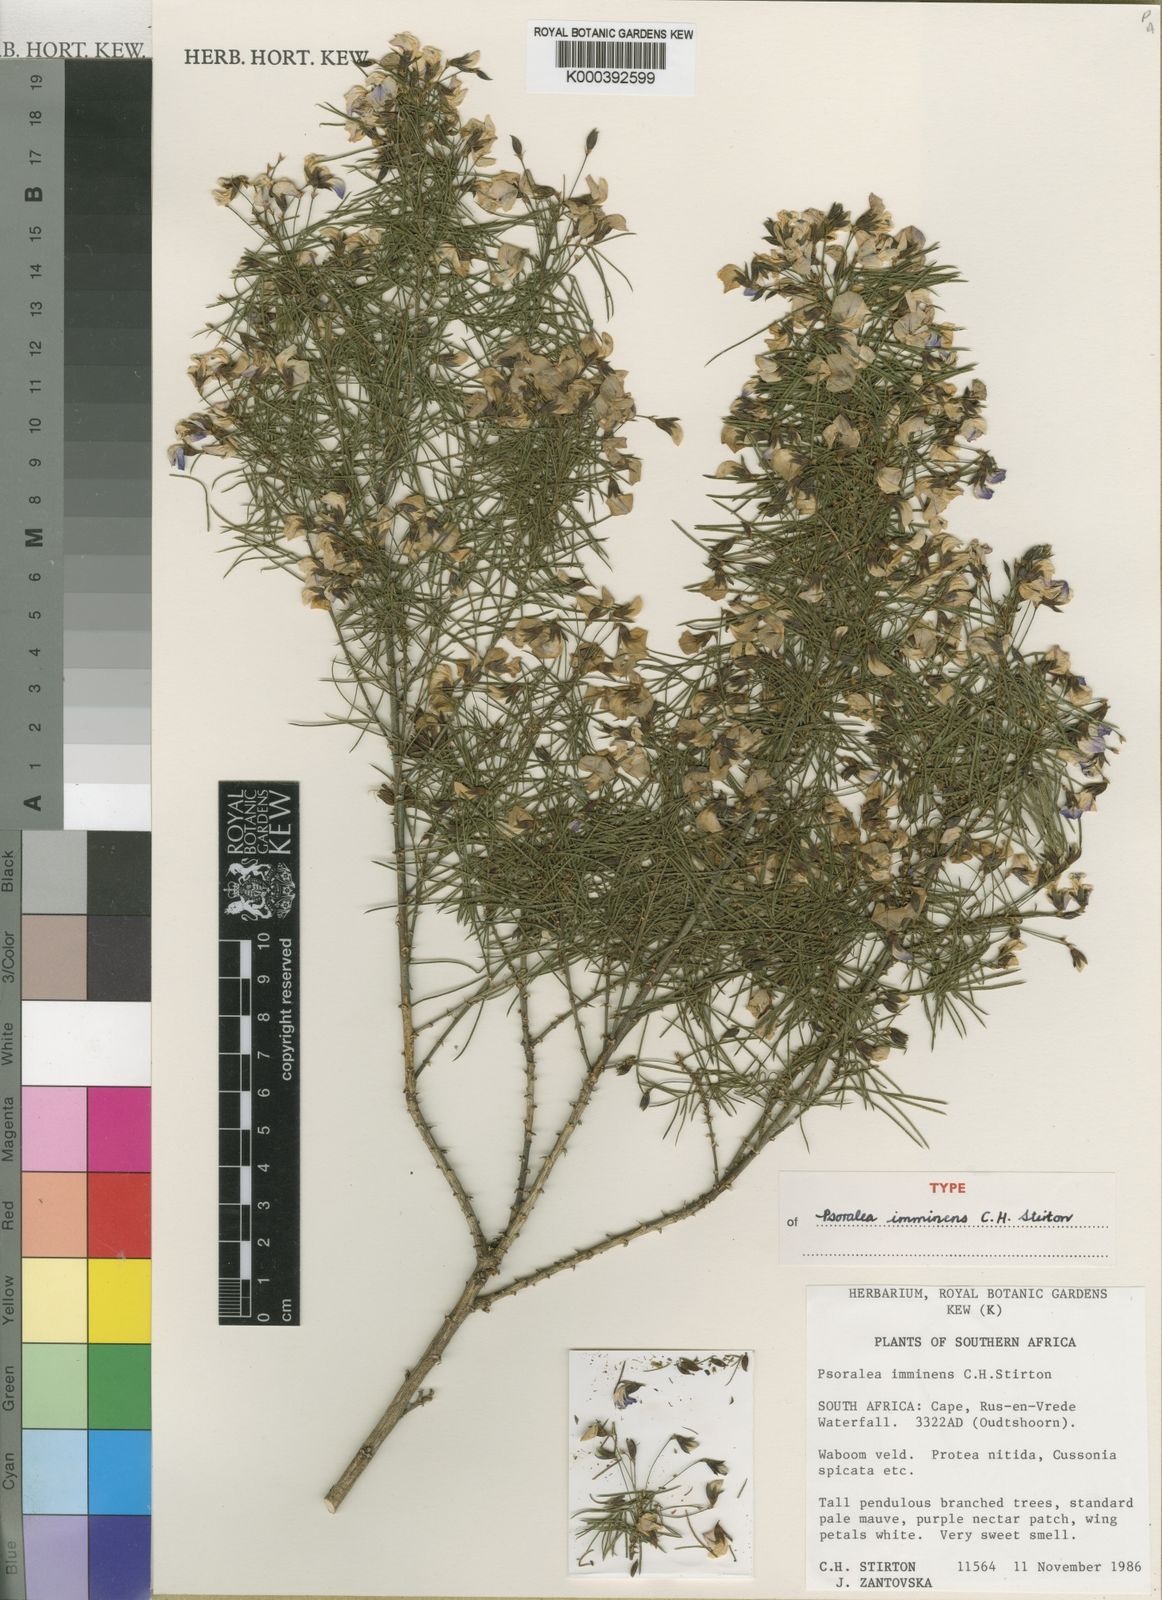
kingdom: Plantae
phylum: Tracheophyta
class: Magnoliopsida
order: Fabales
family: Fabaceae
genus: Psoralea
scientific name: Psoralea imminens
